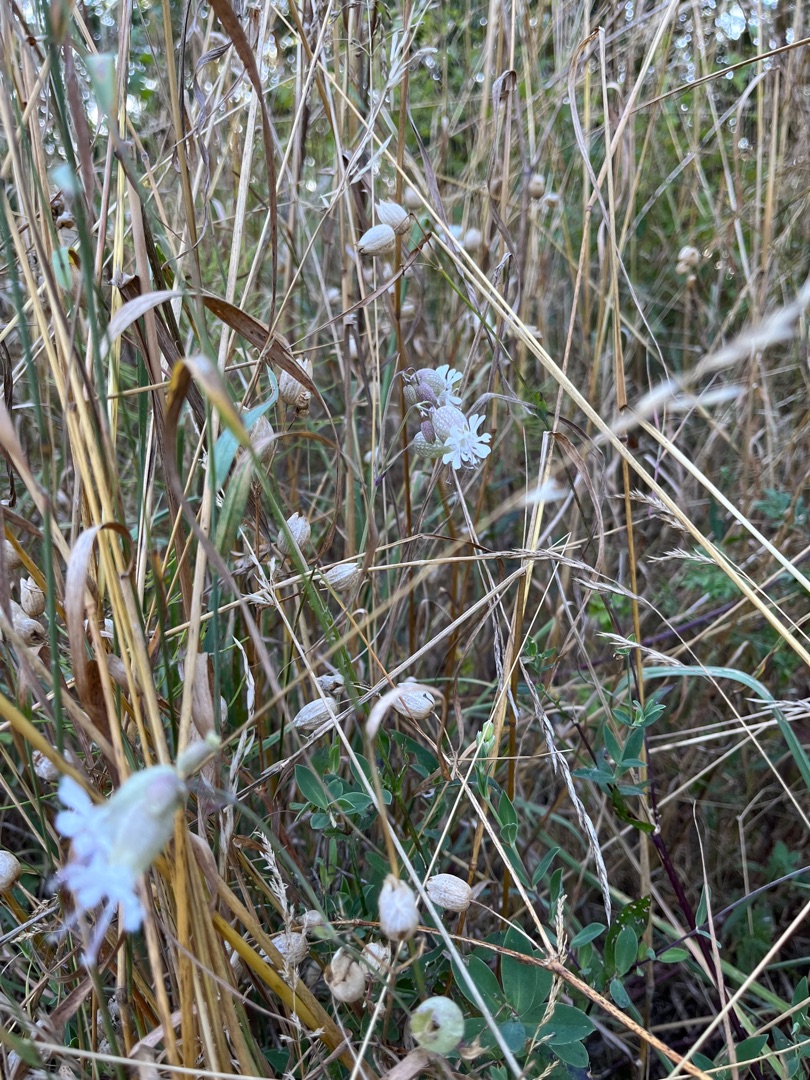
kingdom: Plantae
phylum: Tracheophyta
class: Magnoliopsida
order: Caryophyllales
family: Caryophyllaceae
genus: Silene
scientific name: Silene vulgaris
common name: Blæresmælde
